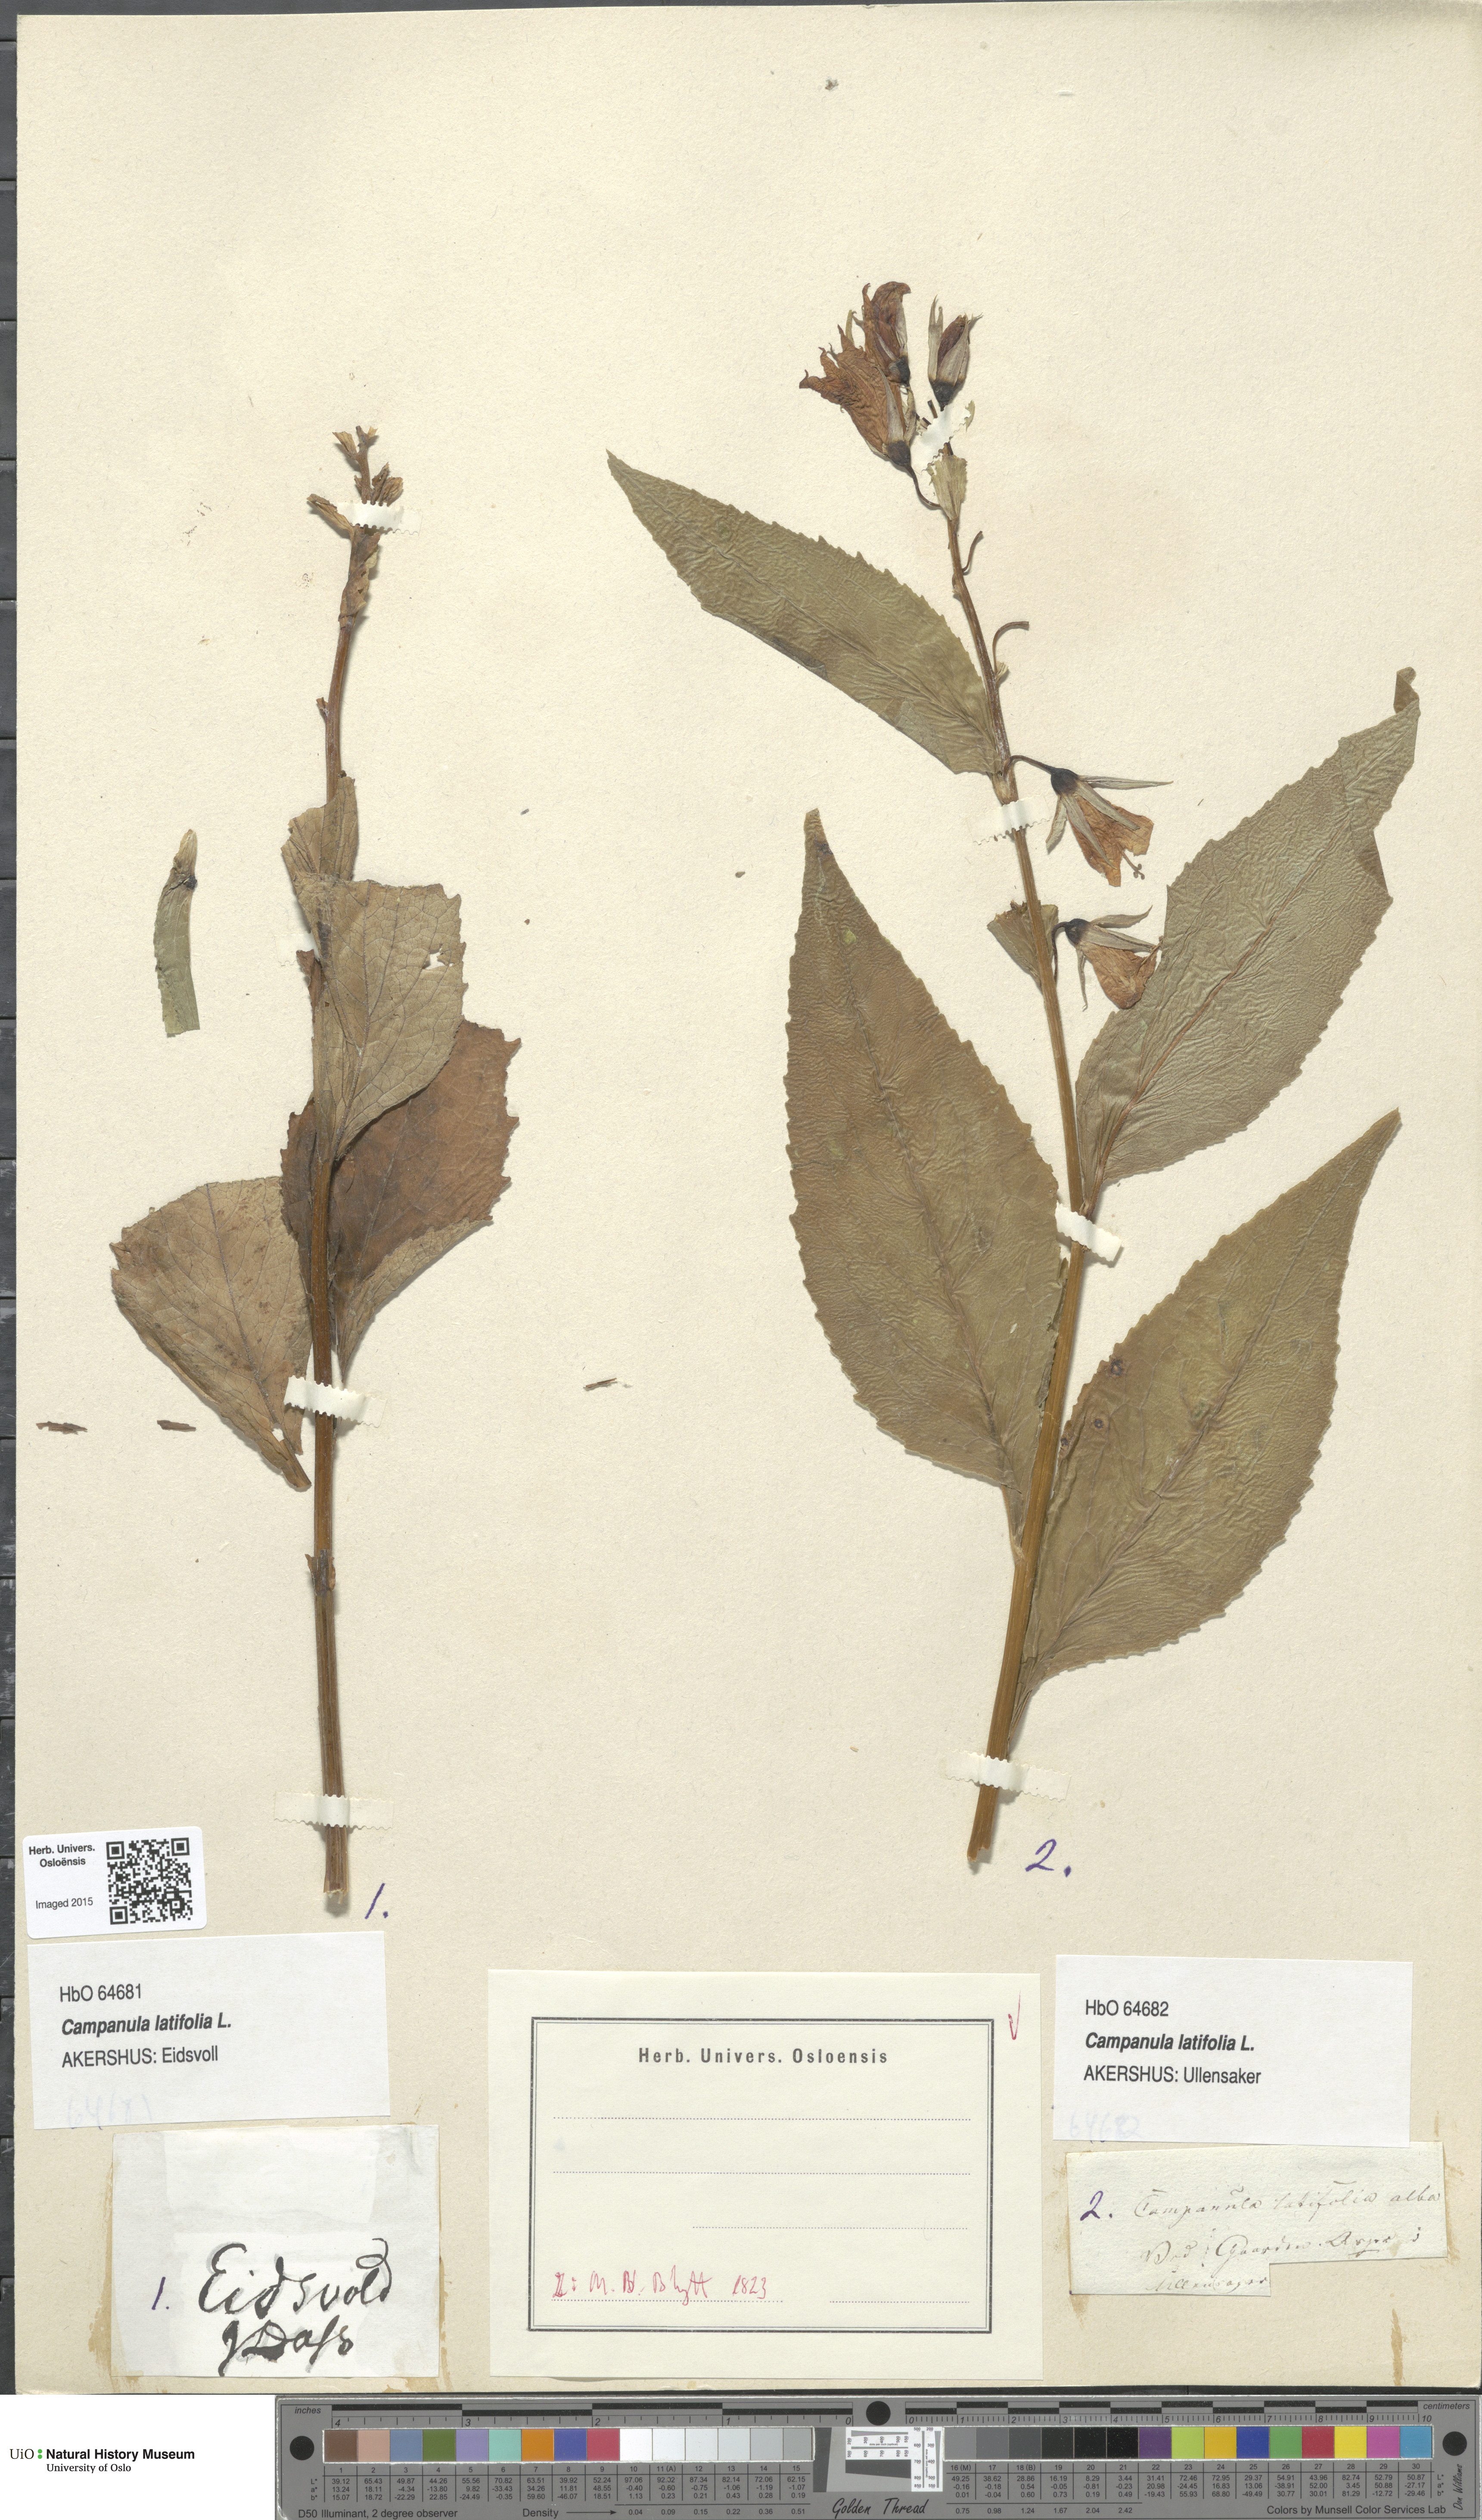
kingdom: Plantae
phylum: Tracheophyta
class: Magnoliopsida
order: Asterales
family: Campanulaceae
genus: Campanula
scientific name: Campanula latifolia
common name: Giant bellflower
